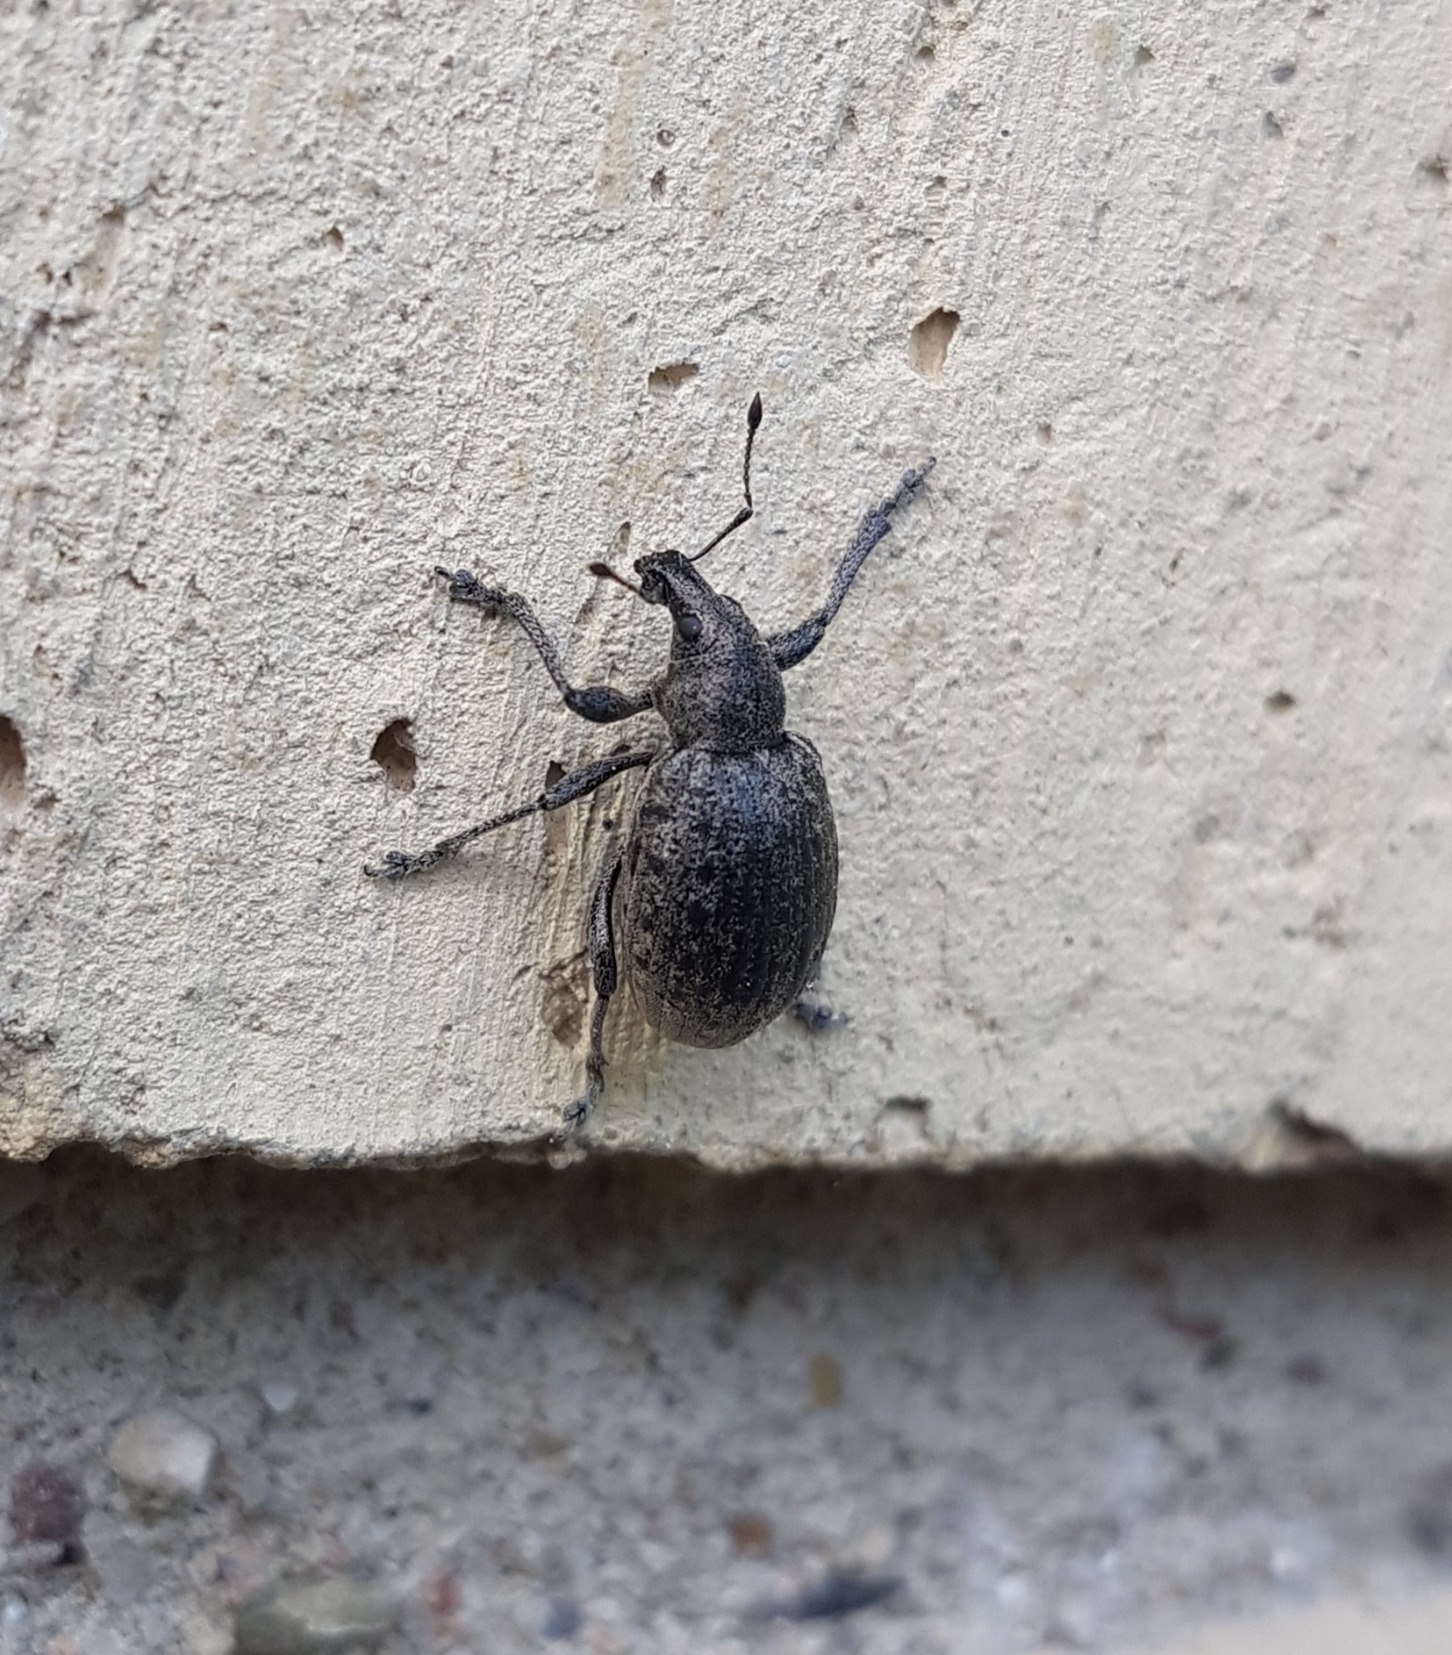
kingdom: Animalia
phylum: Arthropoda
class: Insecta
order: Coleoptera
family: Curculionidae
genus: Liophloeus
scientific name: Liophloeus tessulatus
